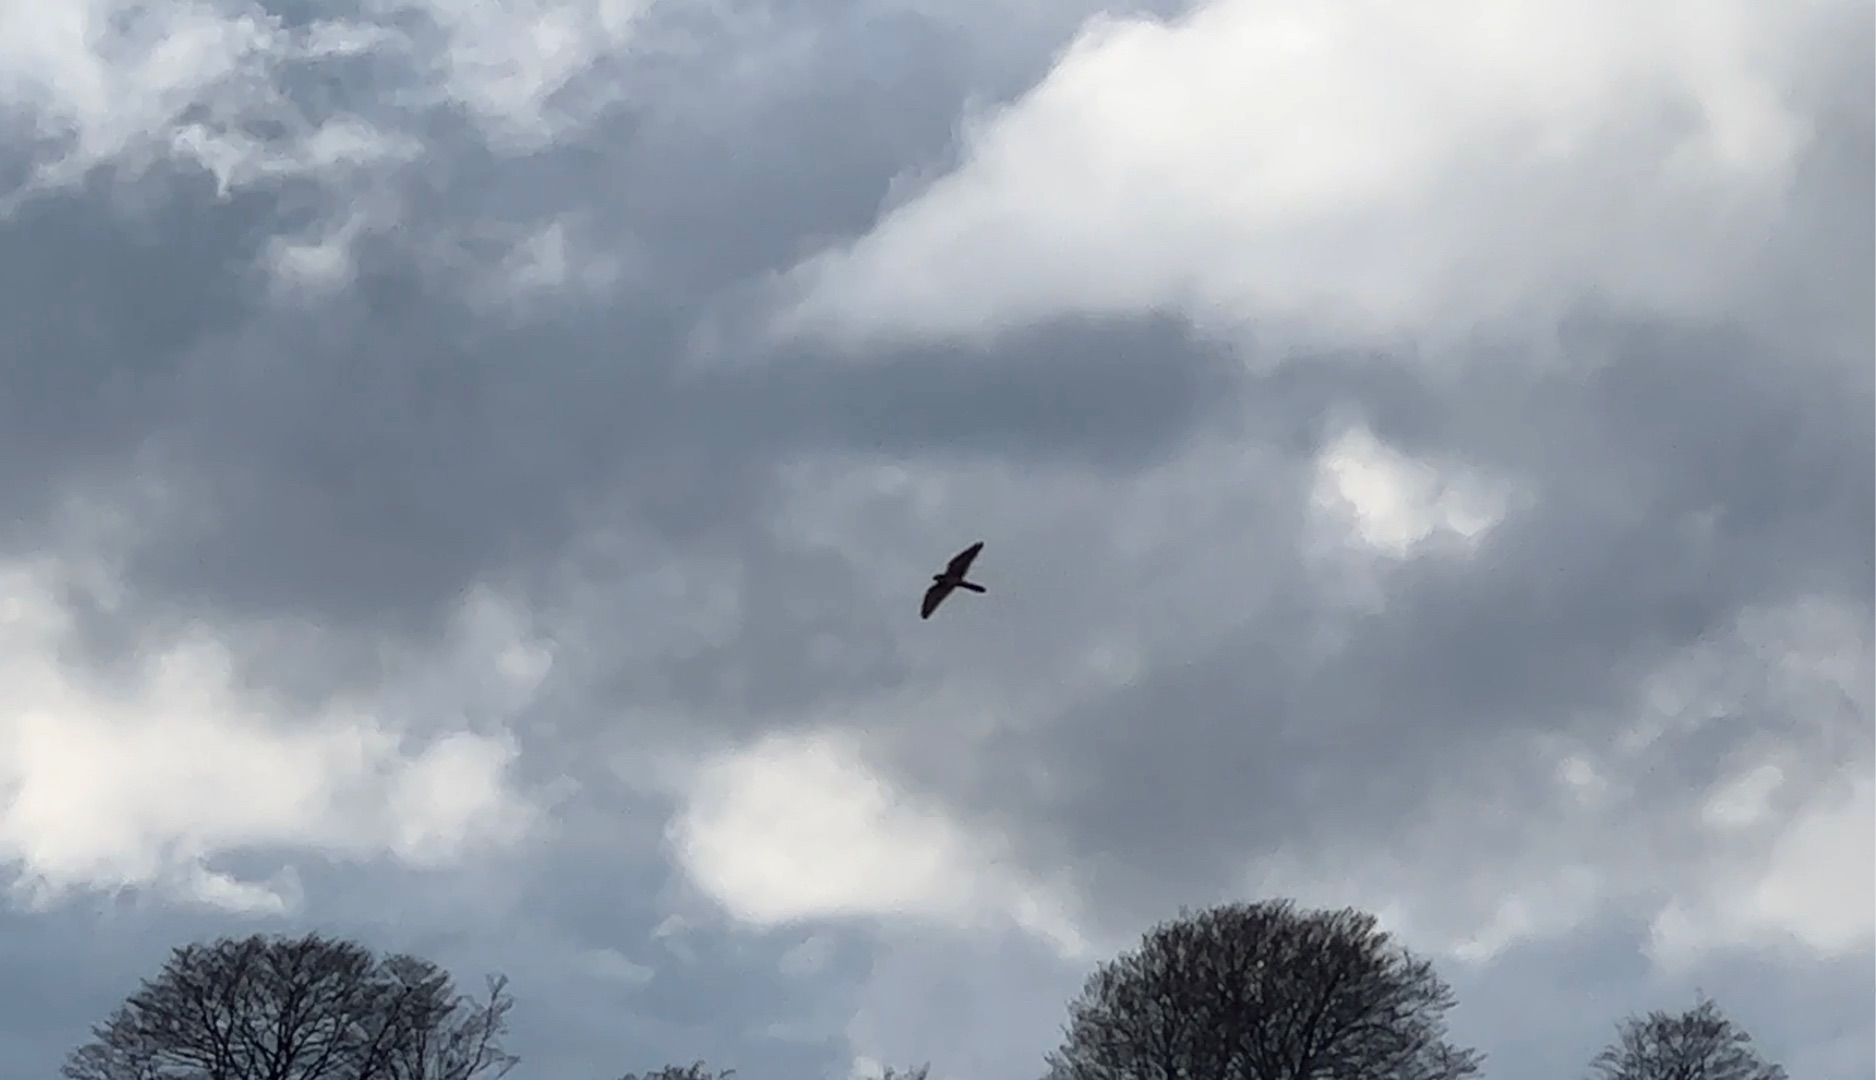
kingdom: Animalia
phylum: Chordata
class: Aves
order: Falconiformes
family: Falconidae
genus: Falco
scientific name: Falco tinnunculus
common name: Tårnfalk
